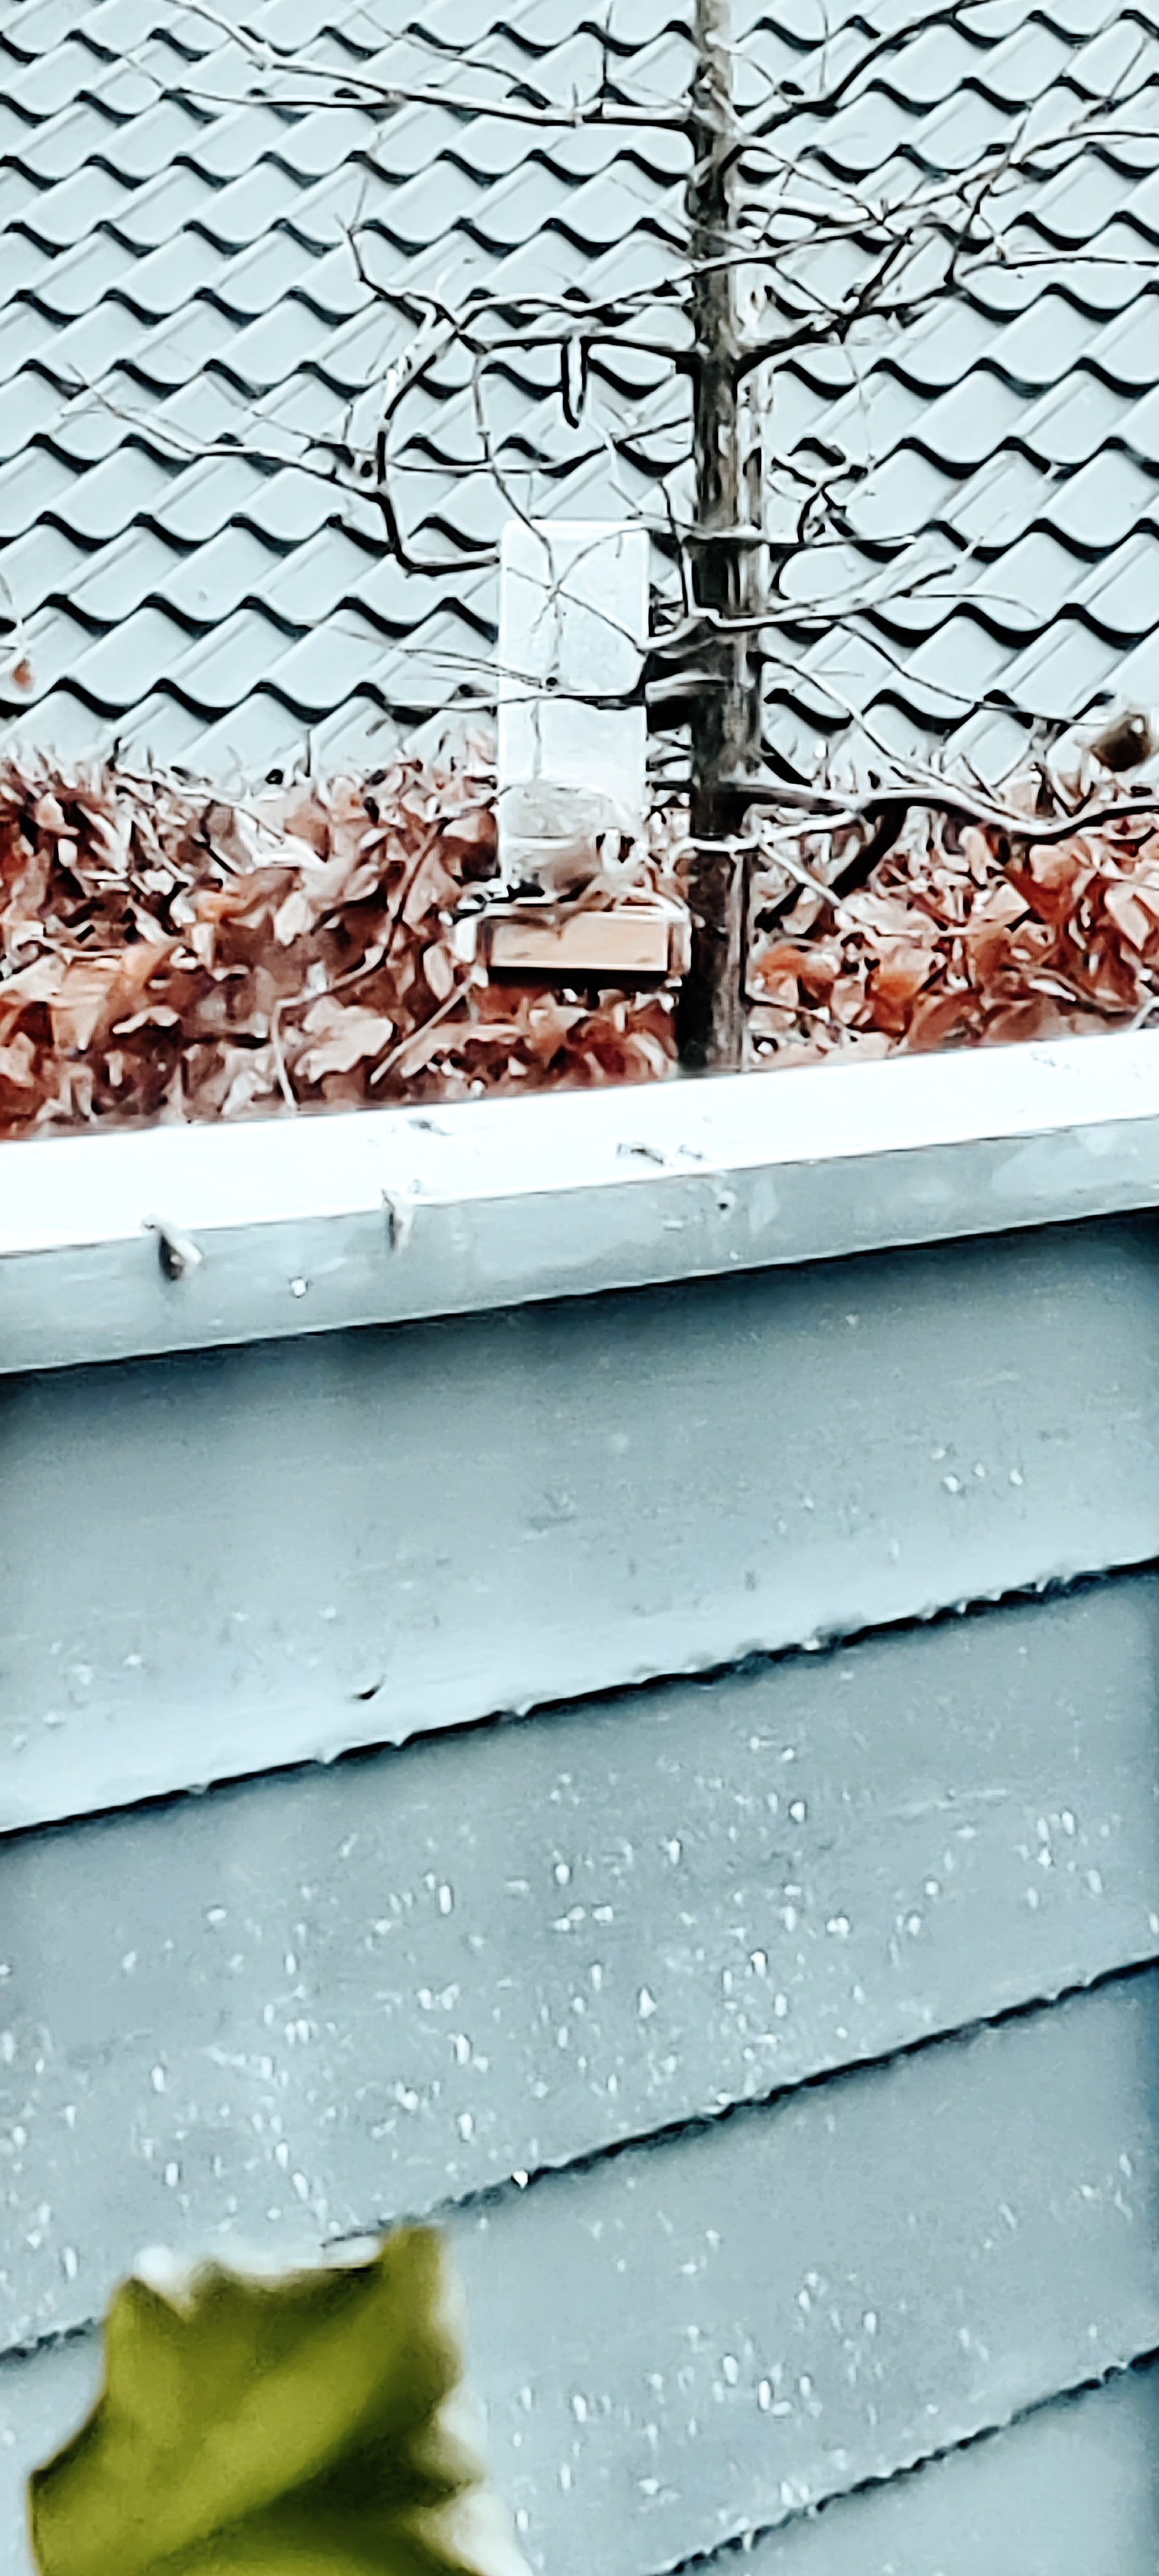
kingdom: Animalia
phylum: Chordata
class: Aves
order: Passeriformes
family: Fringillidae
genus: Carduelis
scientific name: Carduelis carduelis
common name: Stillits
